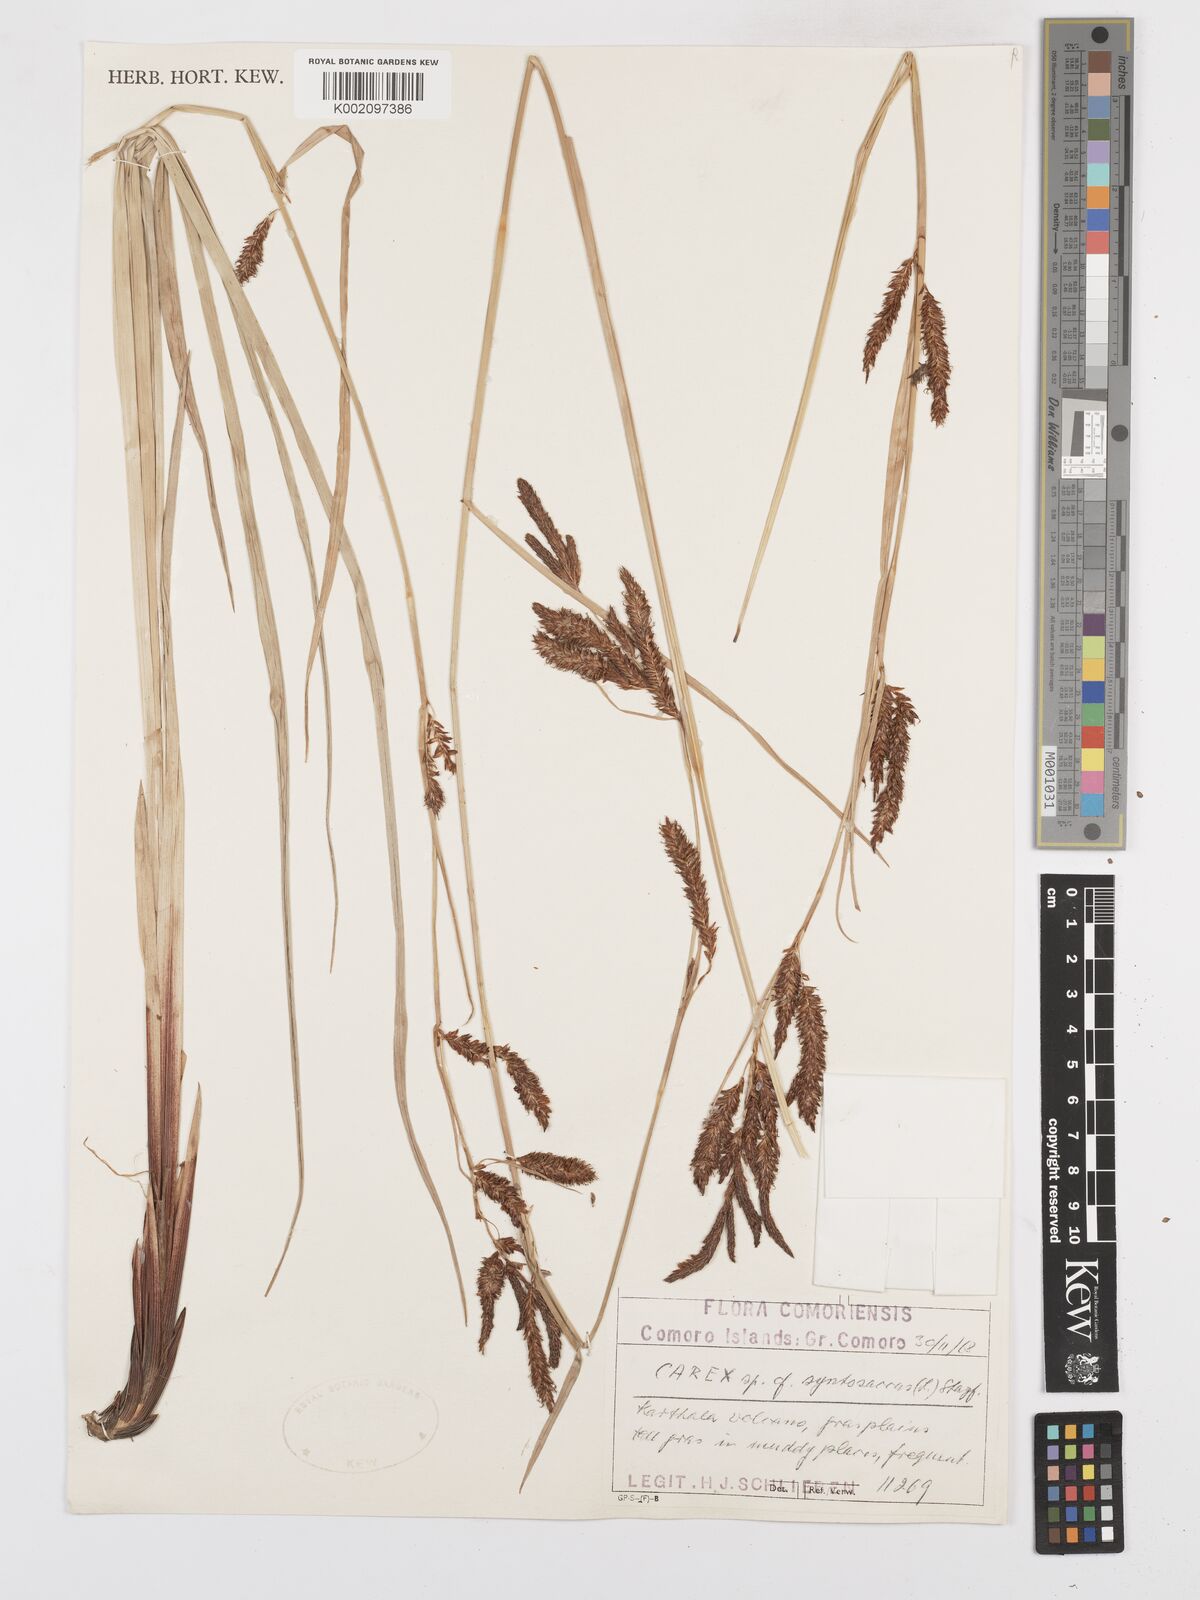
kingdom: Plantae
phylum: Tracheophyta
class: Liliopsida
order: Poales
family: Cyperaceae
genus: Carex
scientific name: Carex
